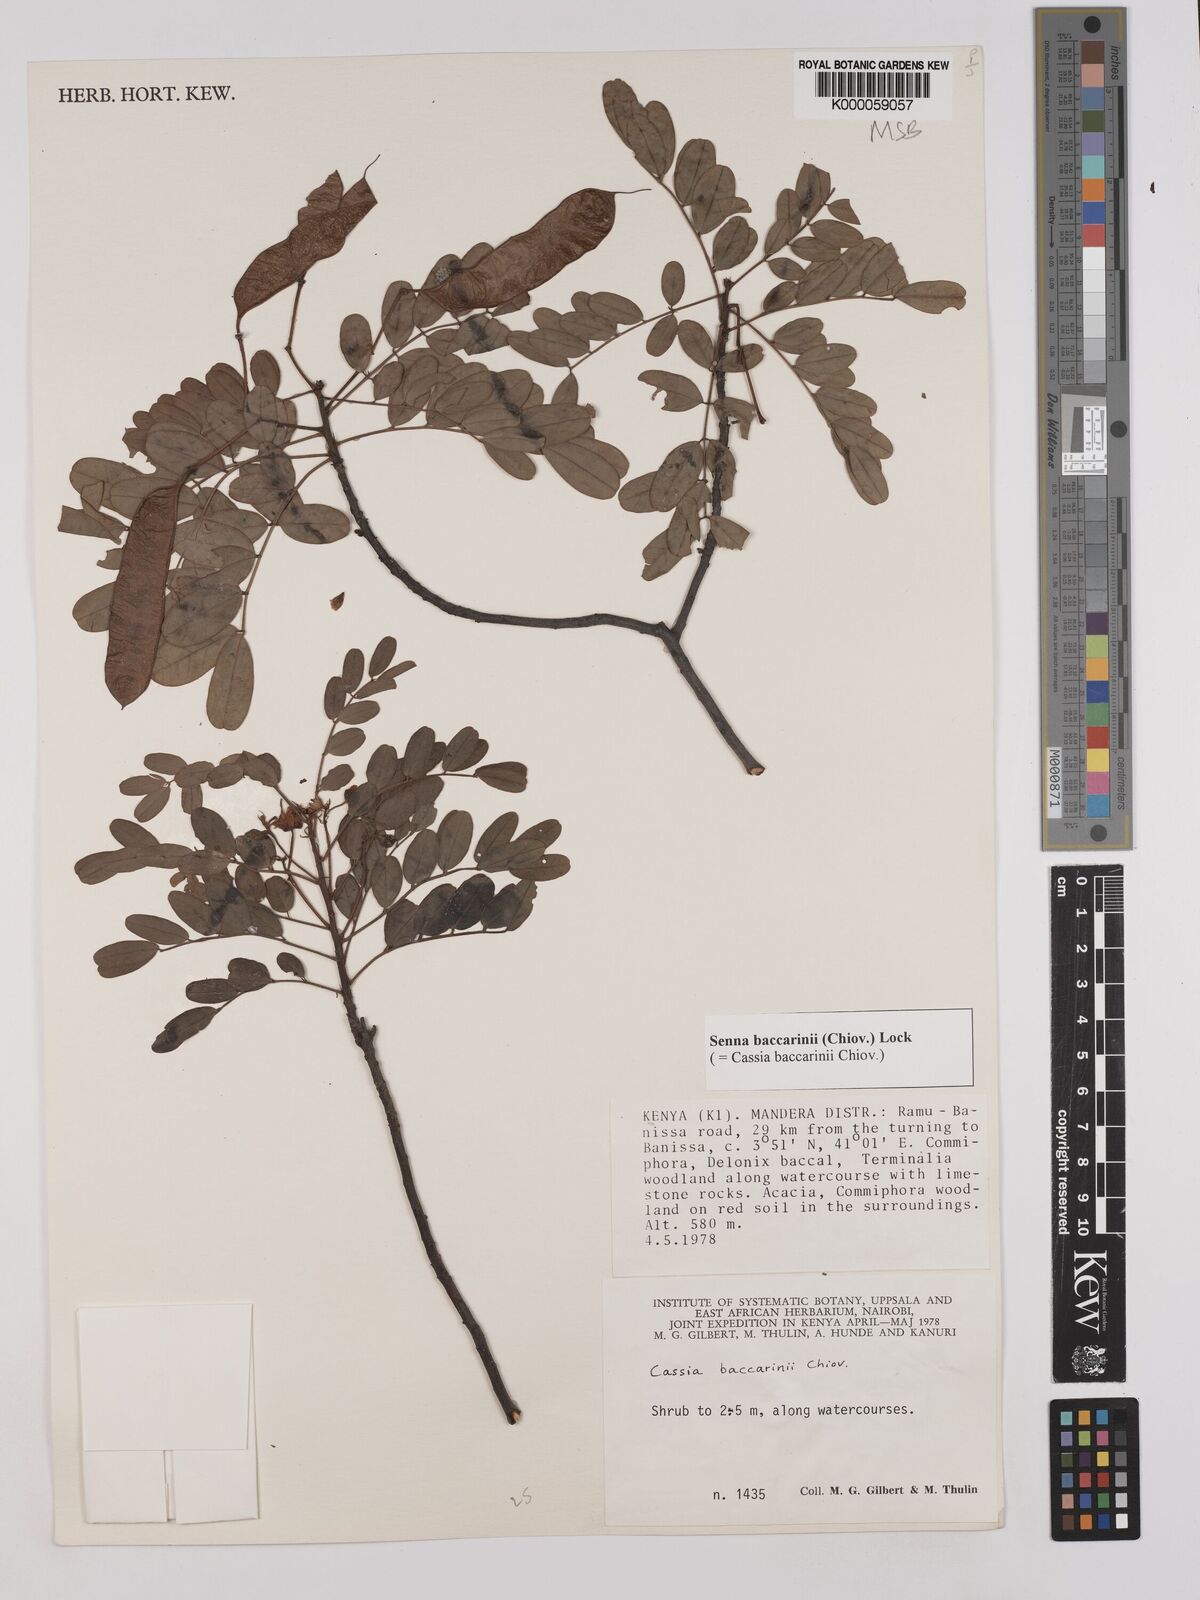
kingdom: Plantae
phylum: Tracheophyta
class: Magnoliopsida
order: Fabales
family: Fabaceae
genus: Senna
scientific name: Senna baccarinii
